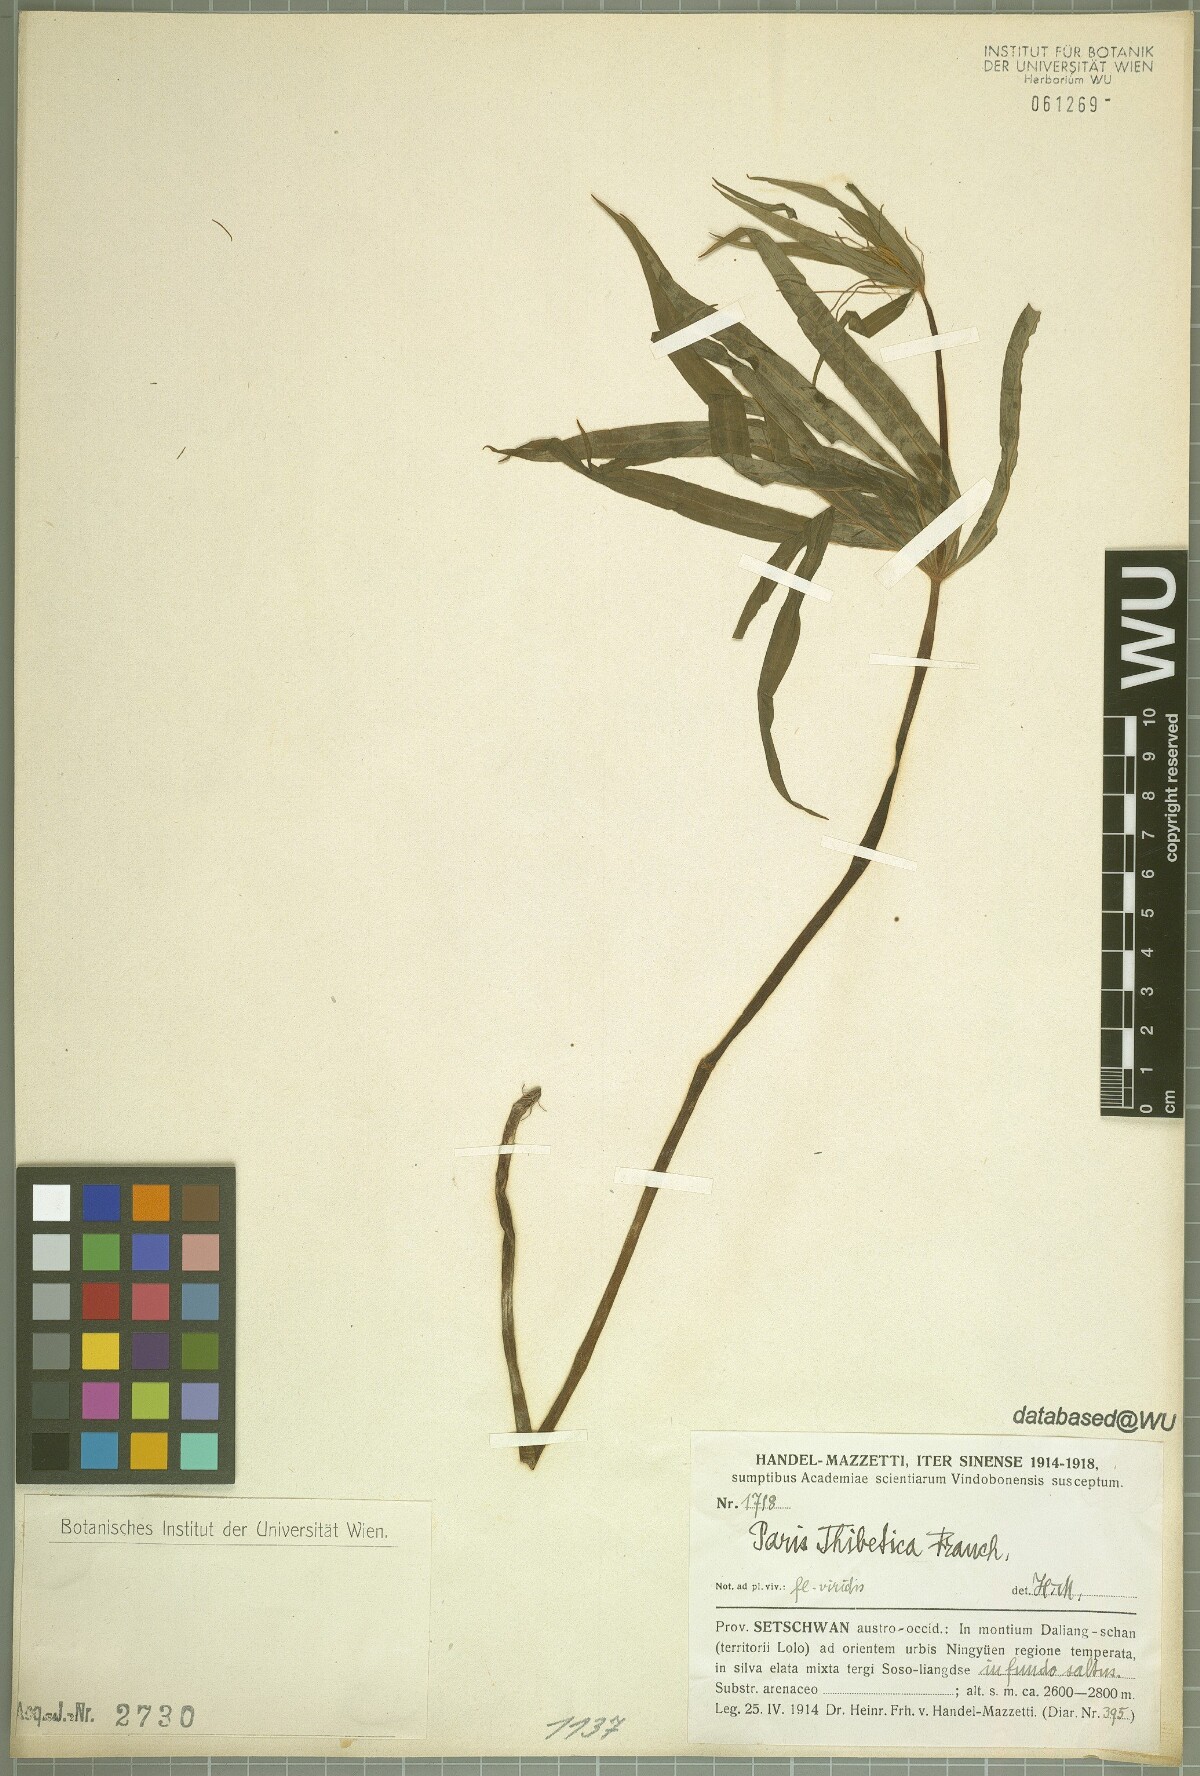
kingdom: Plantae
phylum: Tracheophyta
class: Liliopsida
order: Liliales
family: Melanthiaceae
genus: Paris
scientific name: Paris thibetica
